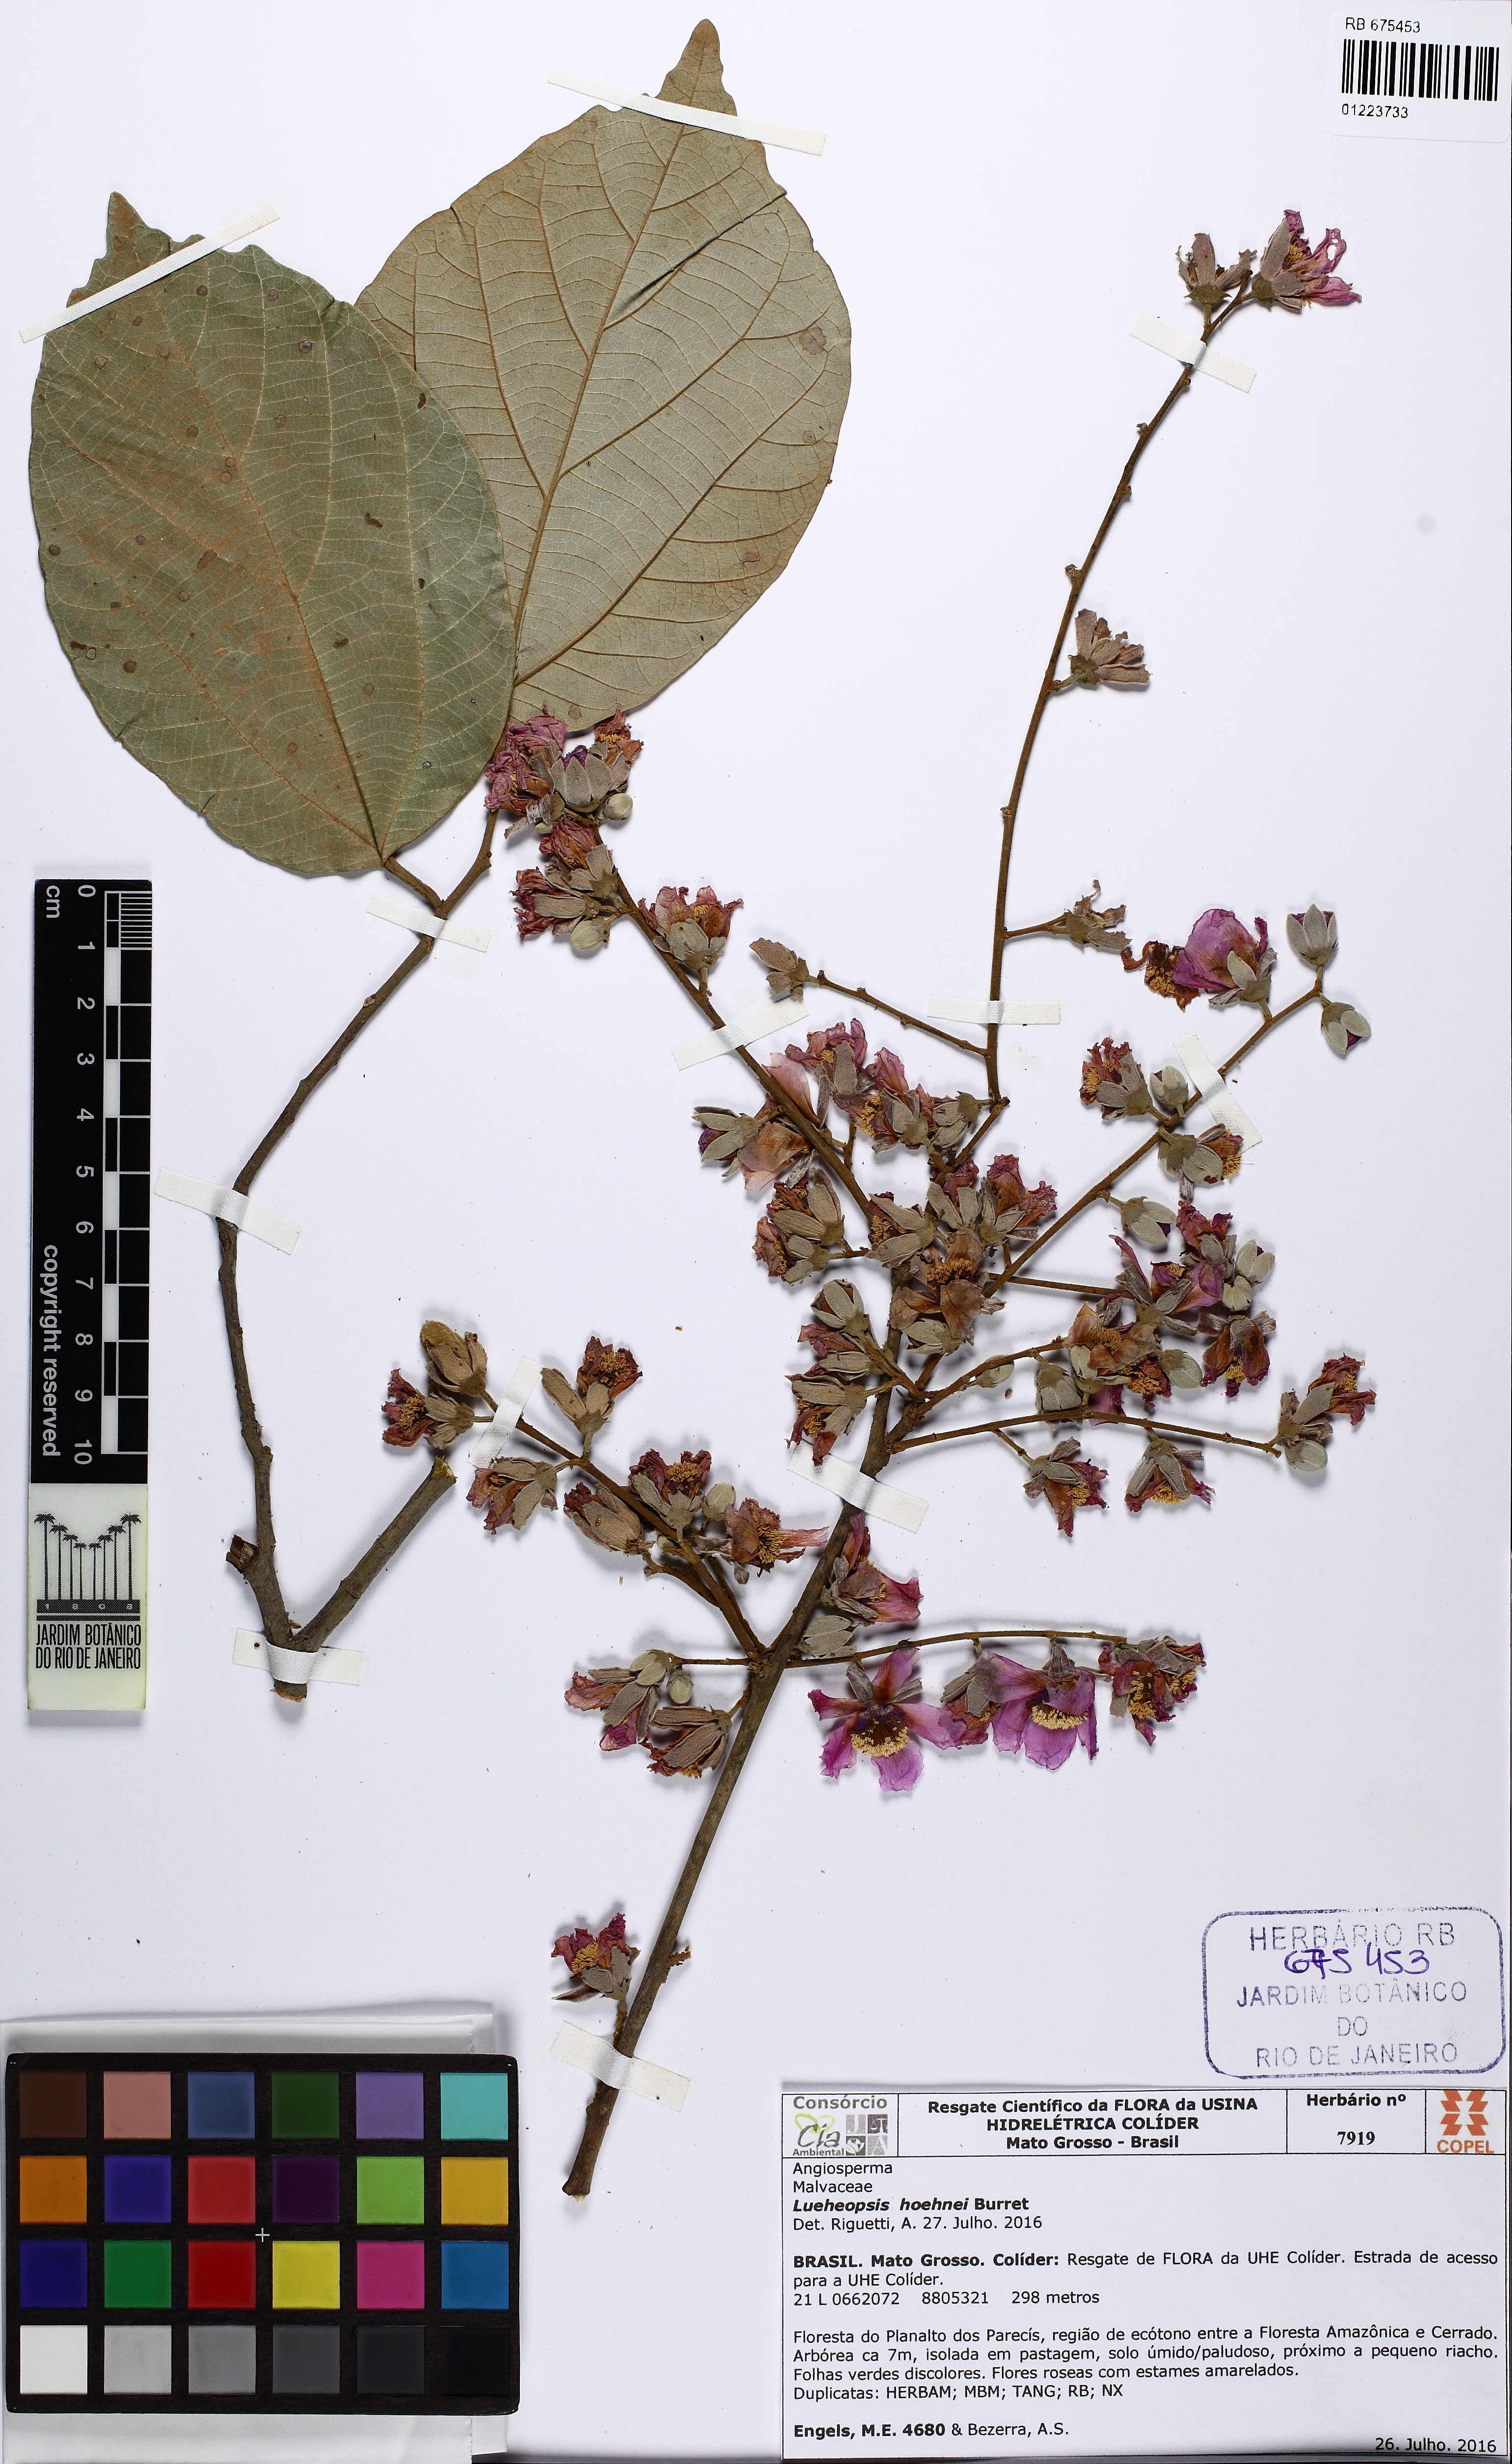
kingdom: Plantae
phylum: Tracheophyta
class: Magnoliopsida
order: Malvales
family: Malvaceae
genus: Lueheopsis
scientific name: Lueheopsis hoehnei
